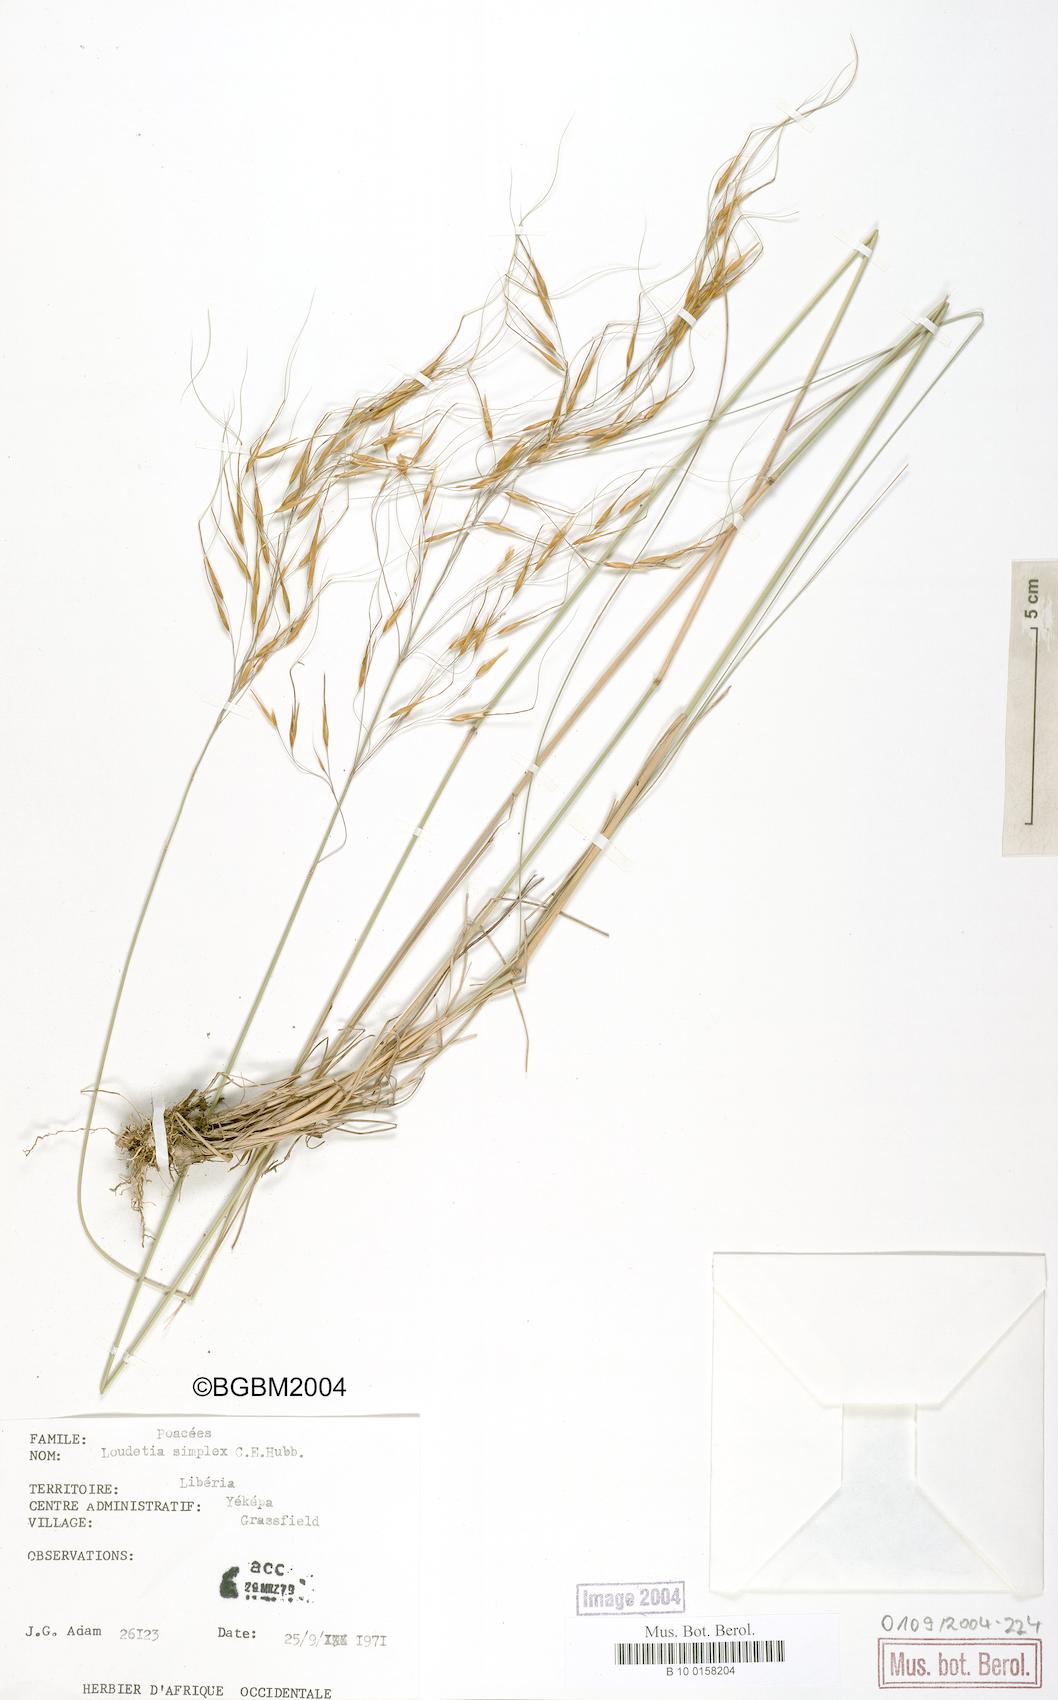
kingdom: Plantae
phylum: Tracheophyta
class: Liliopsida
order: Poales
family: Poaceae
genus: Loudetia
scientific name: Loudetia simplex
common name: Common russet grass
